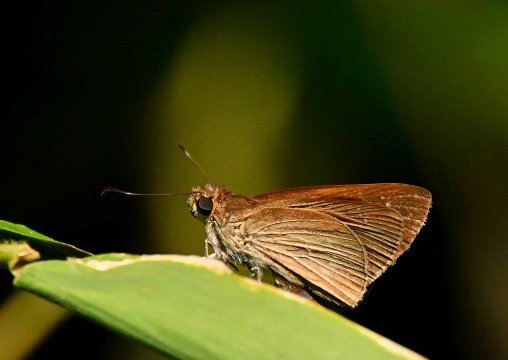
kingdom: Animalia
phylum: Arthropoda
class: Insecta
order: Lepidoptera
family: Hesperiidae
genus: Cobalopsis
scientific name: Cobalopsis nero
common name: Nero Skipper
